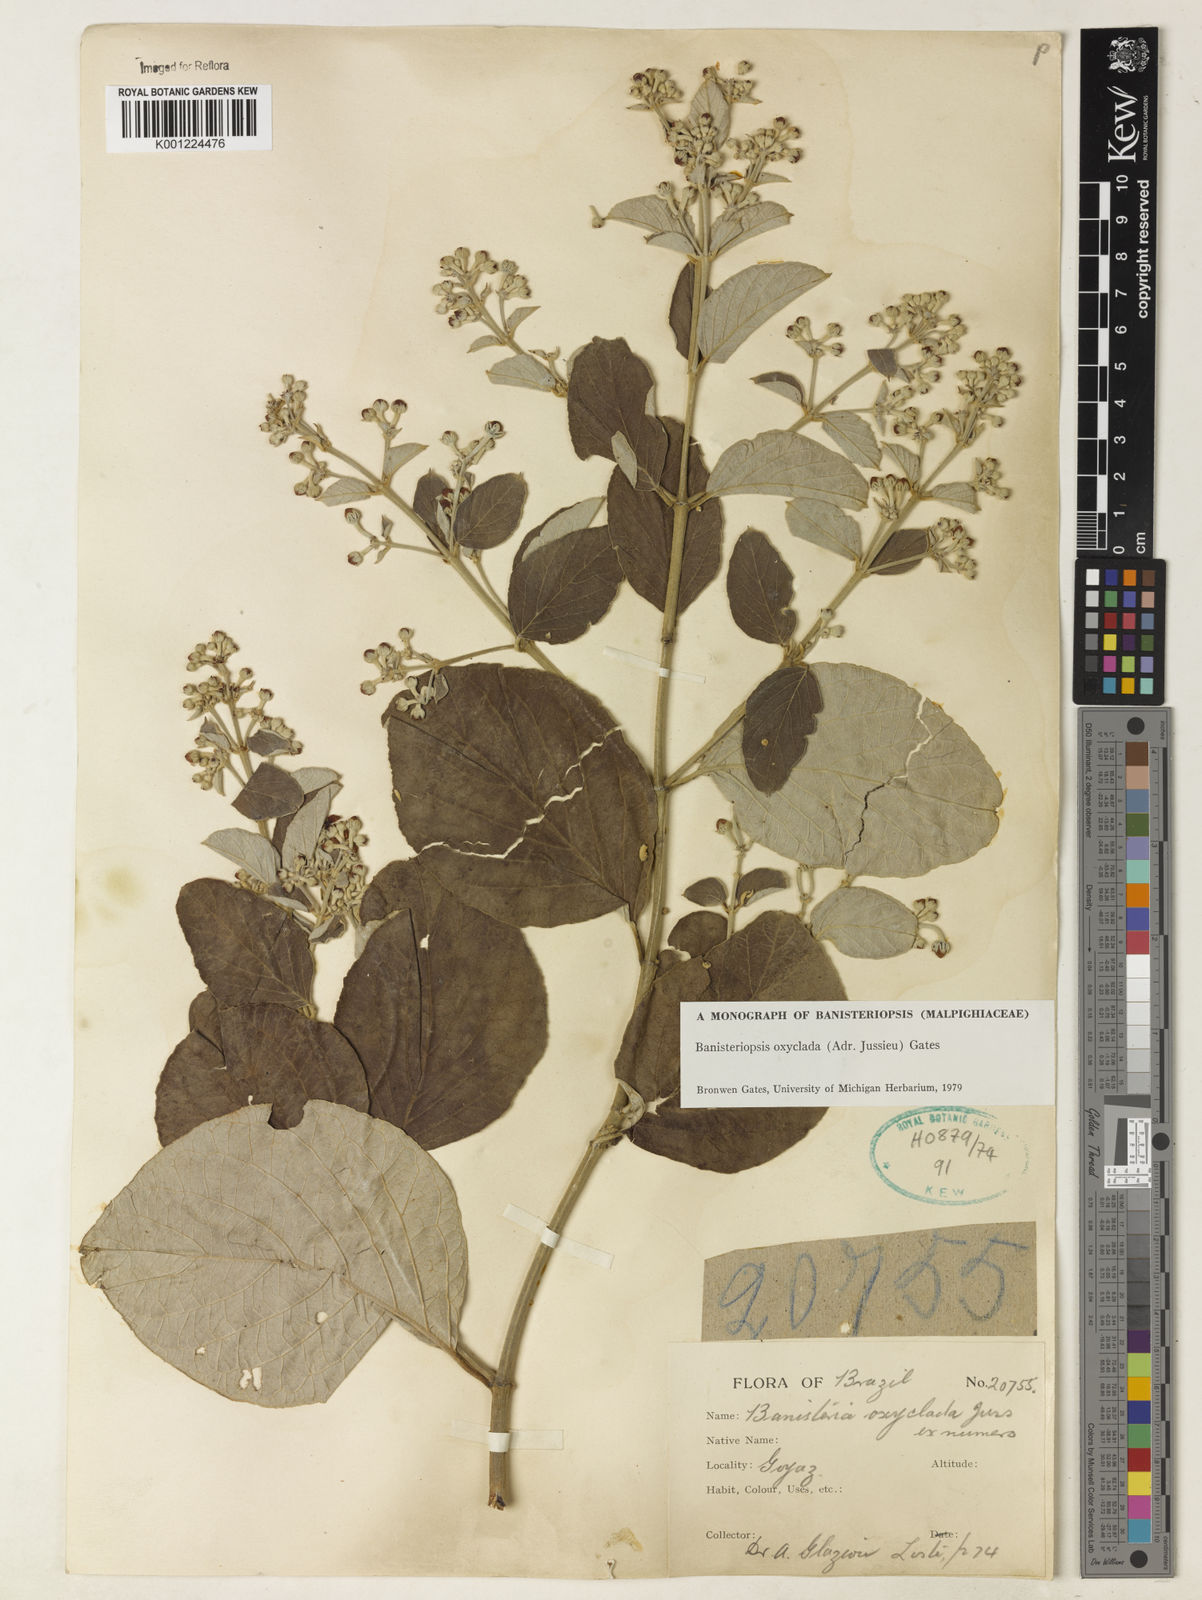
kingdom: Plantae
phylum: Tracheophyta
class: Magnoliopsida
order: Malpighiales
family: Malpighiaceae
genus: Banisteriopsis
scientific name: Banisteriopsis oxyclada
